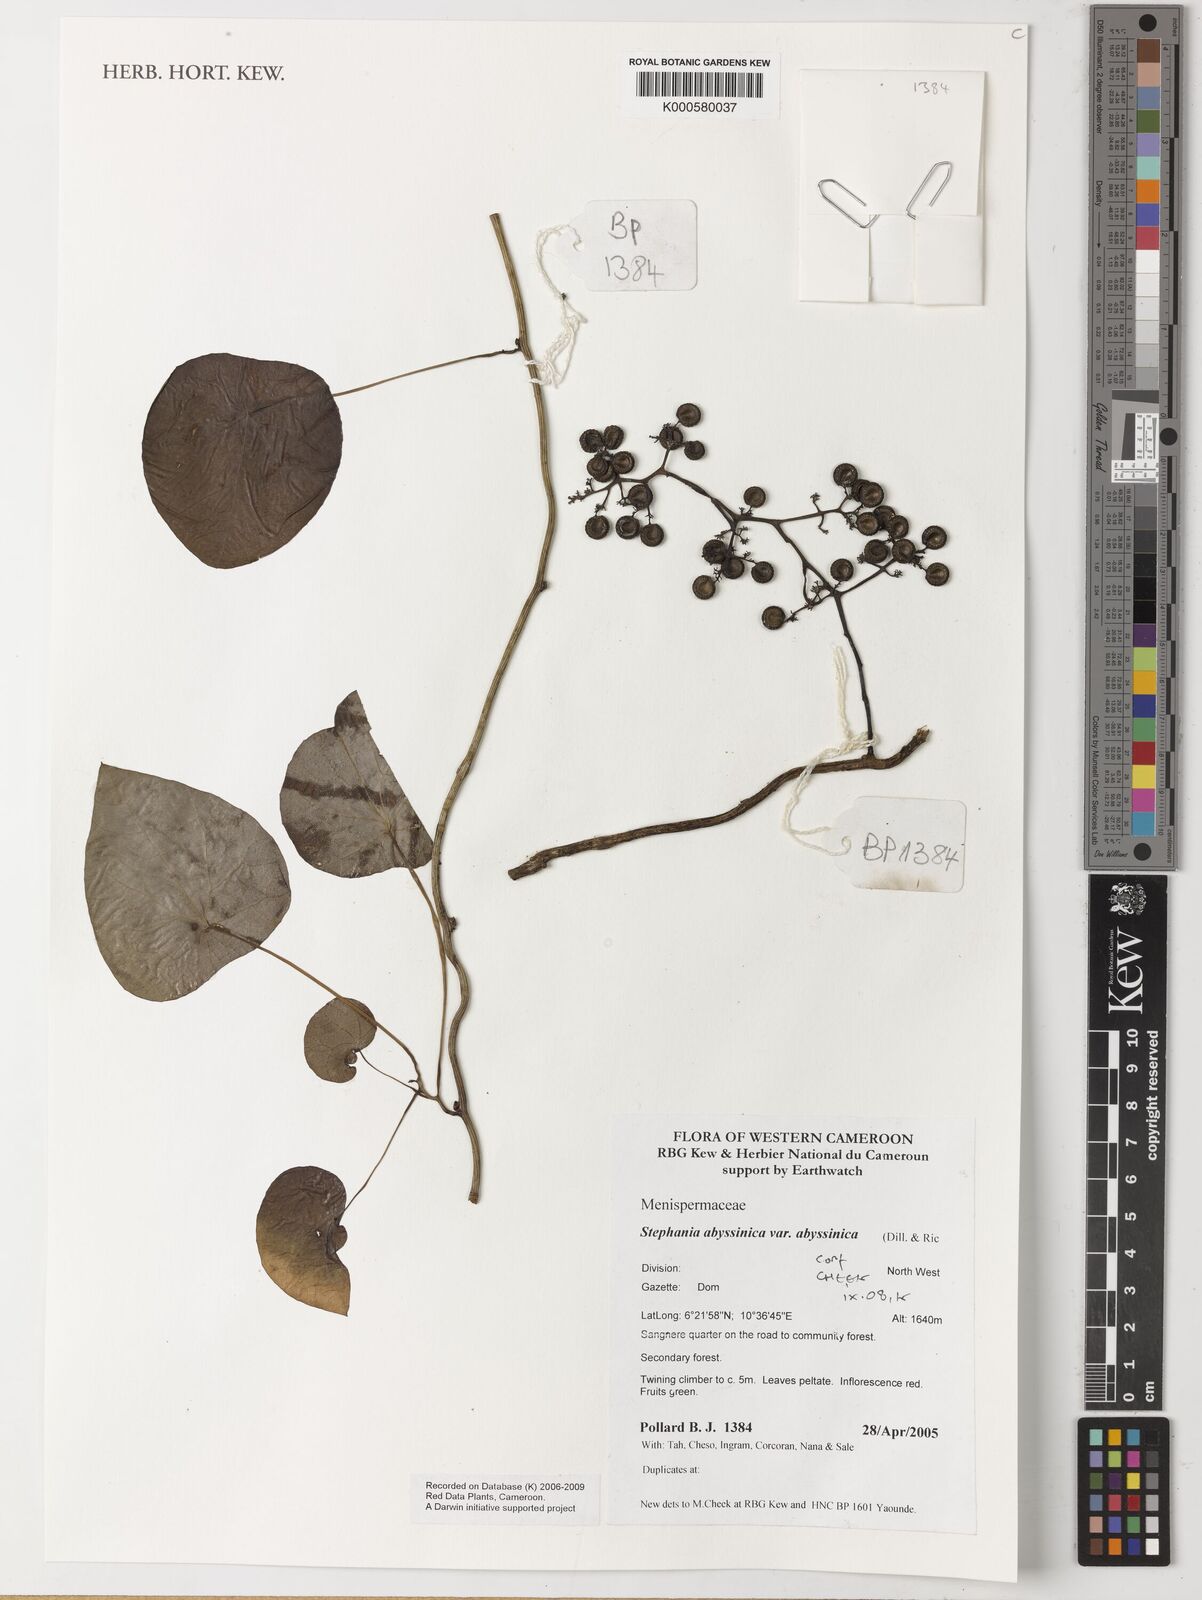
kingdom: Plantae
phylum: Tracheophyta
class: Magnoliopsida
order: Ranunculales
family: Menispermaceae
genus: Stephania
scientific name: Stephania
